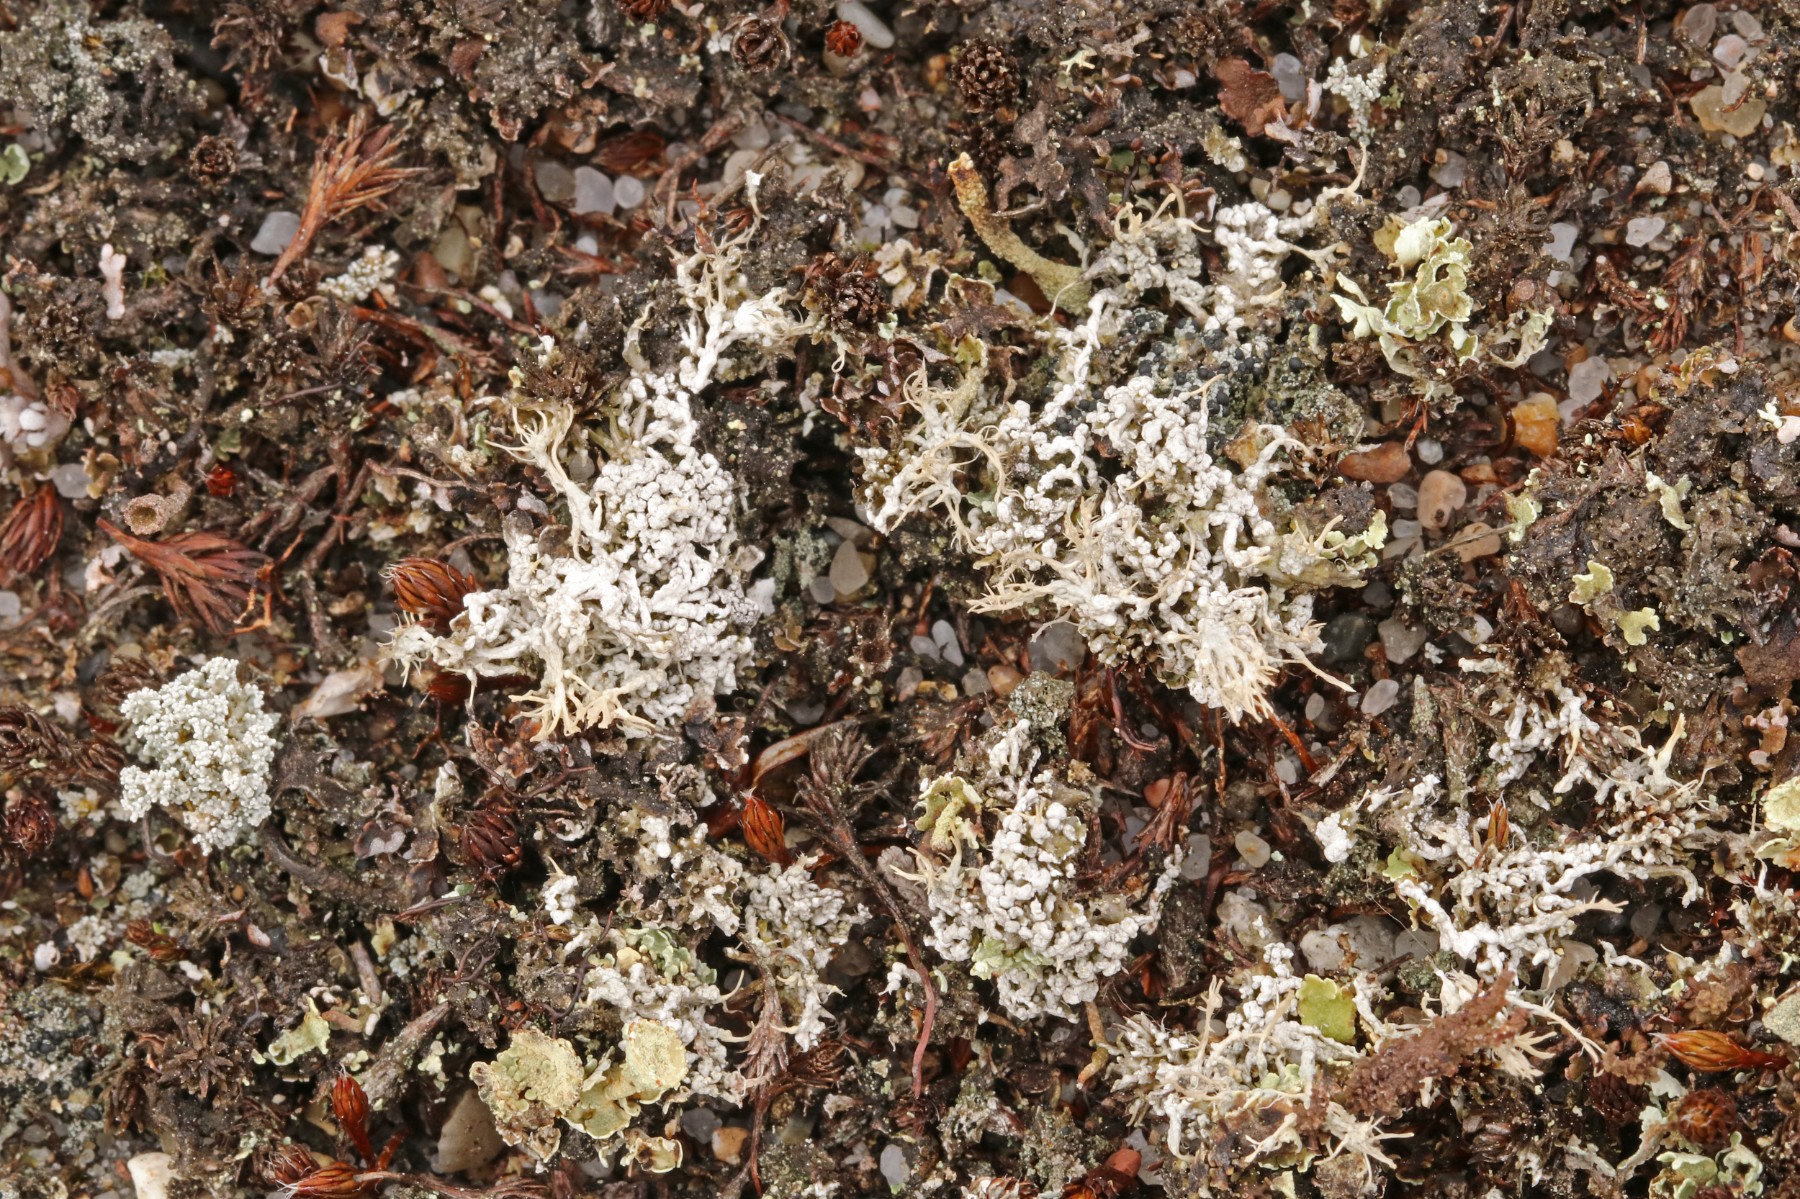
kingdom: Fungi
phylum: Ascomycota
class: Lecanoromycetes
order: Pertusariales
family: Ochrolechiaceae
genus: Ochrolechia
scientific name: Ochrolechia frigida
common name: fjeld-blegskivelav
